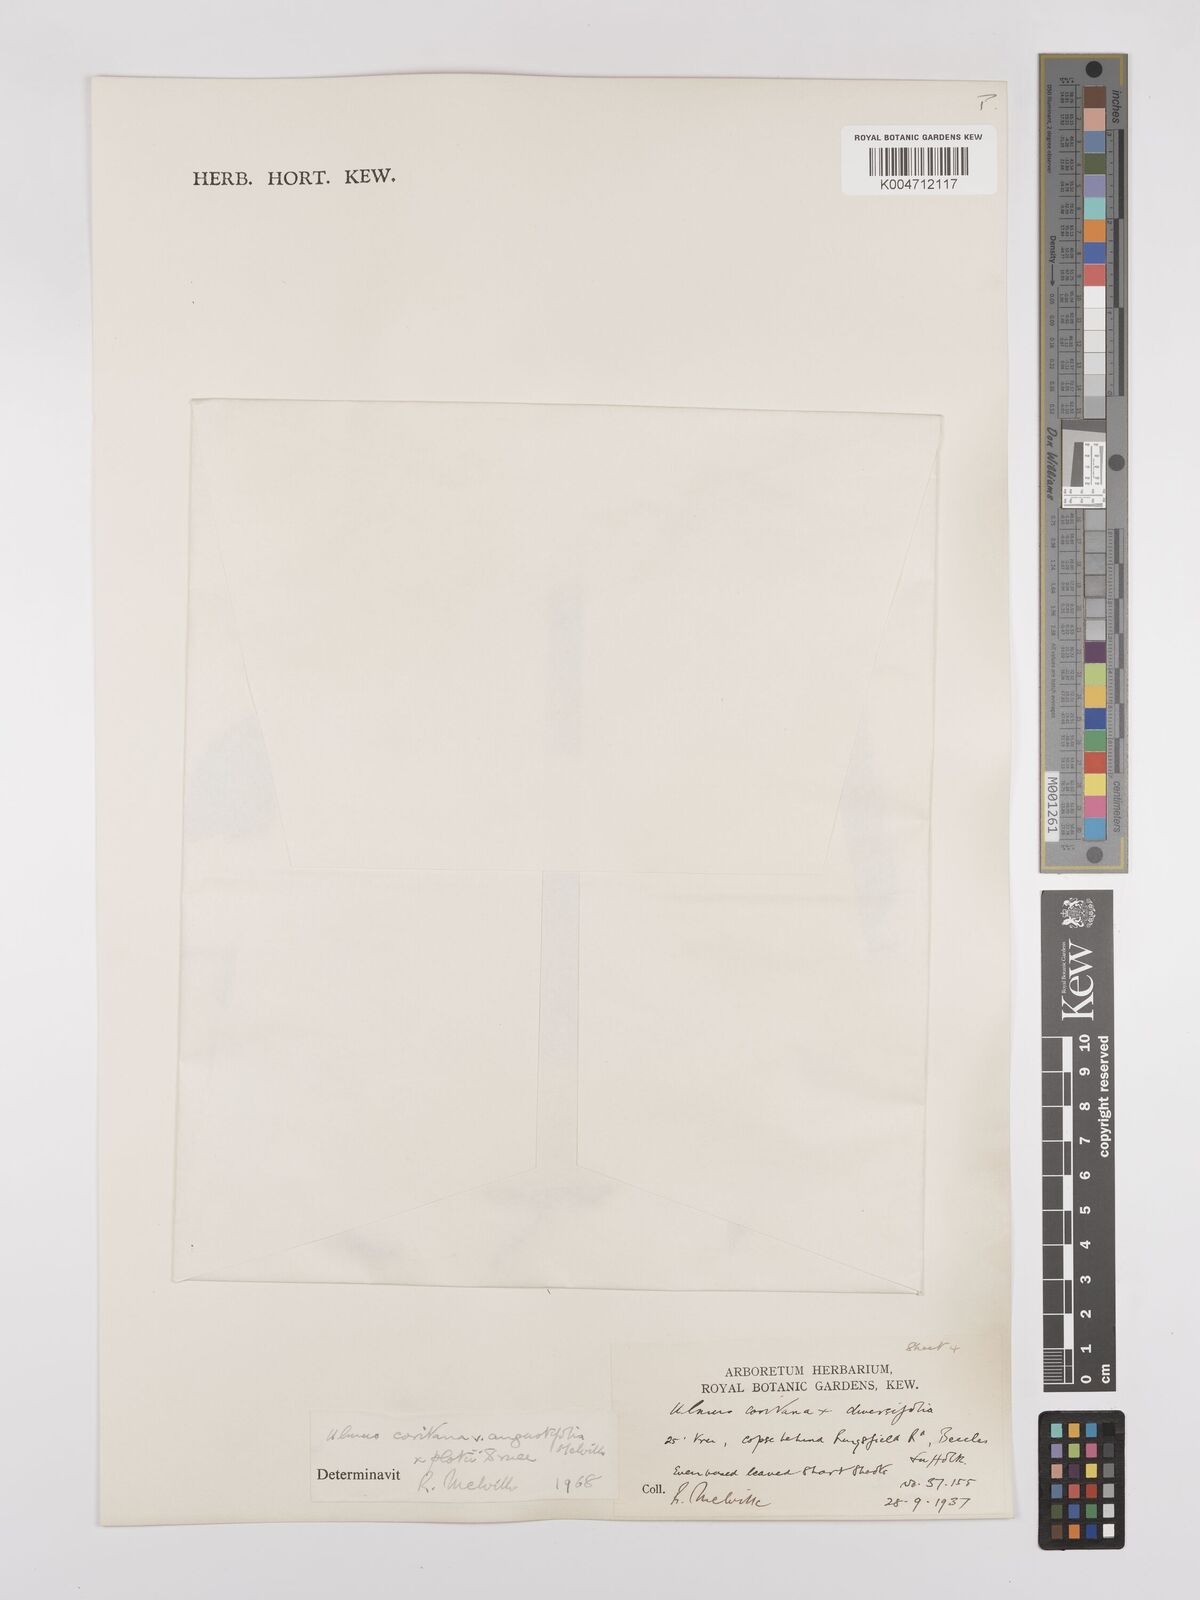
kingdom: Plantae
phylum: Tracheophyta
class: Magnoliopsida
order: Rosales
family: Ulmaceae
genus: Ulmus
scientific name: Ulmus minor
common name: Small-leaved elm
